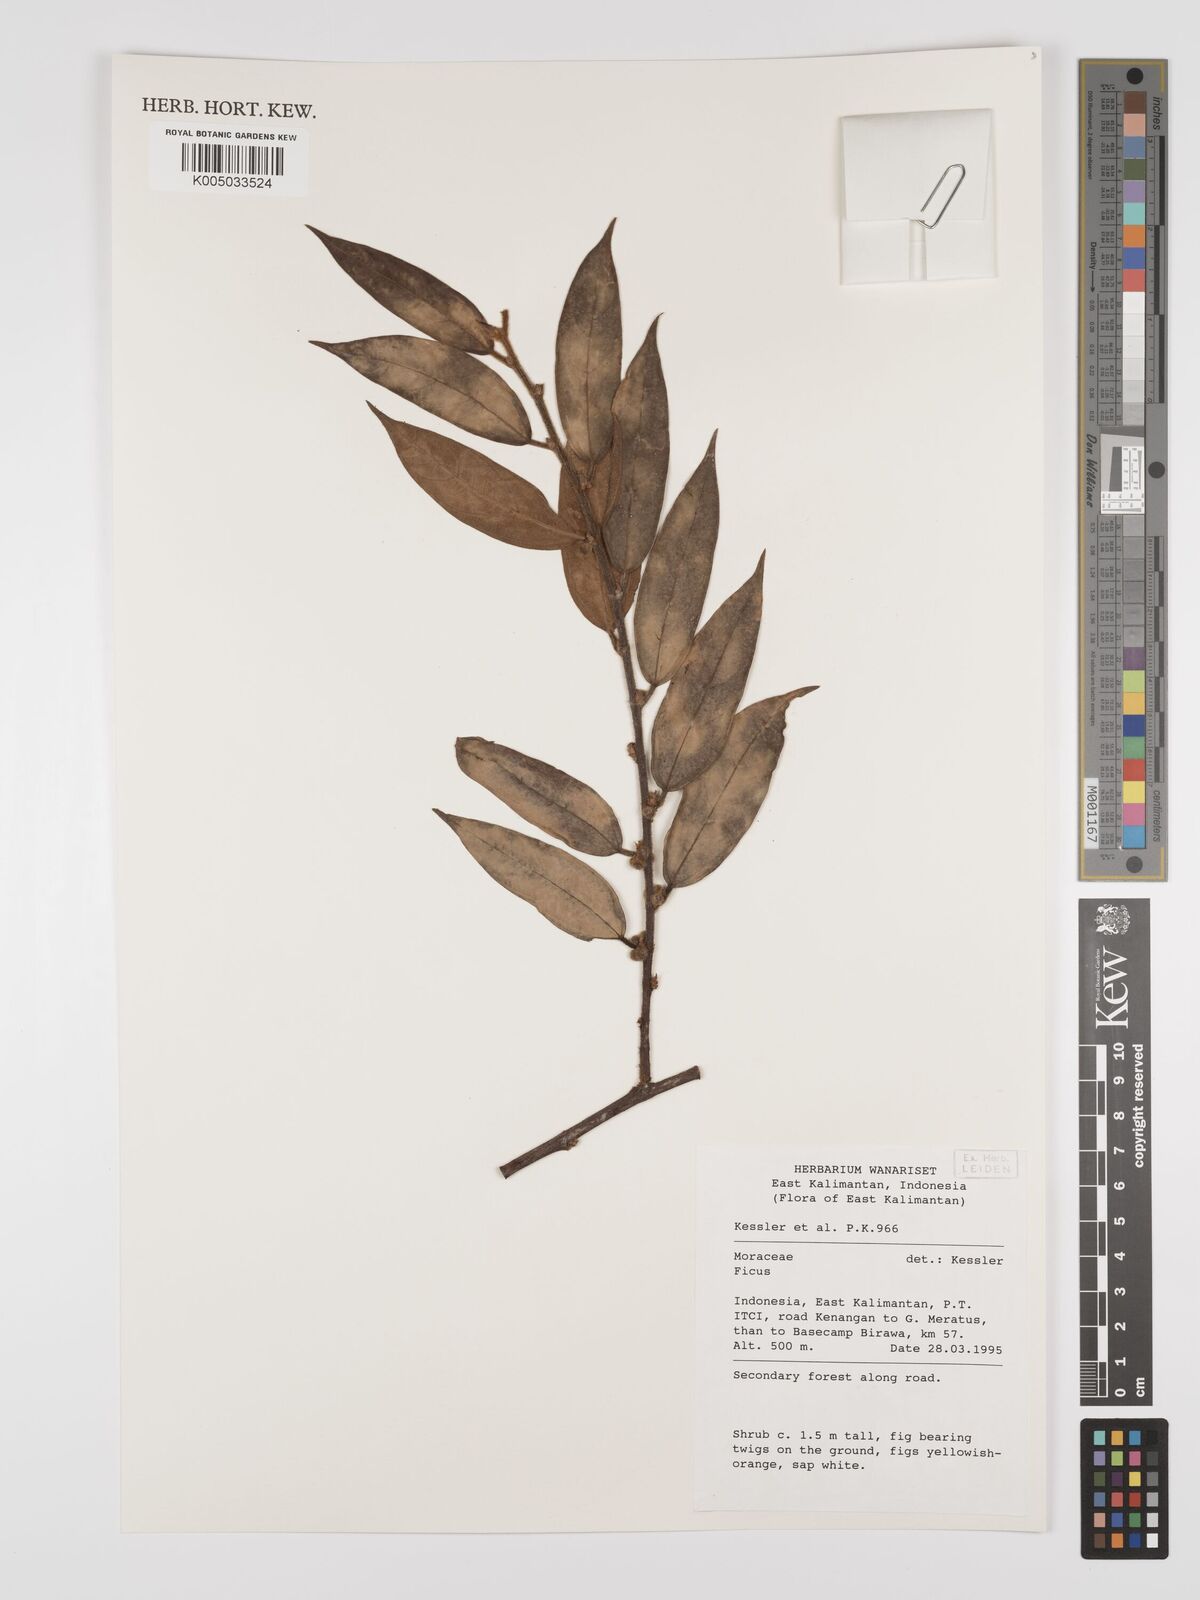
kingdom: Plantae
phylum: Tracheophyta
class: Magnoliopsida
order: Rosales
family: Moraceae
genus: Ficus
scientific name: Ficus
